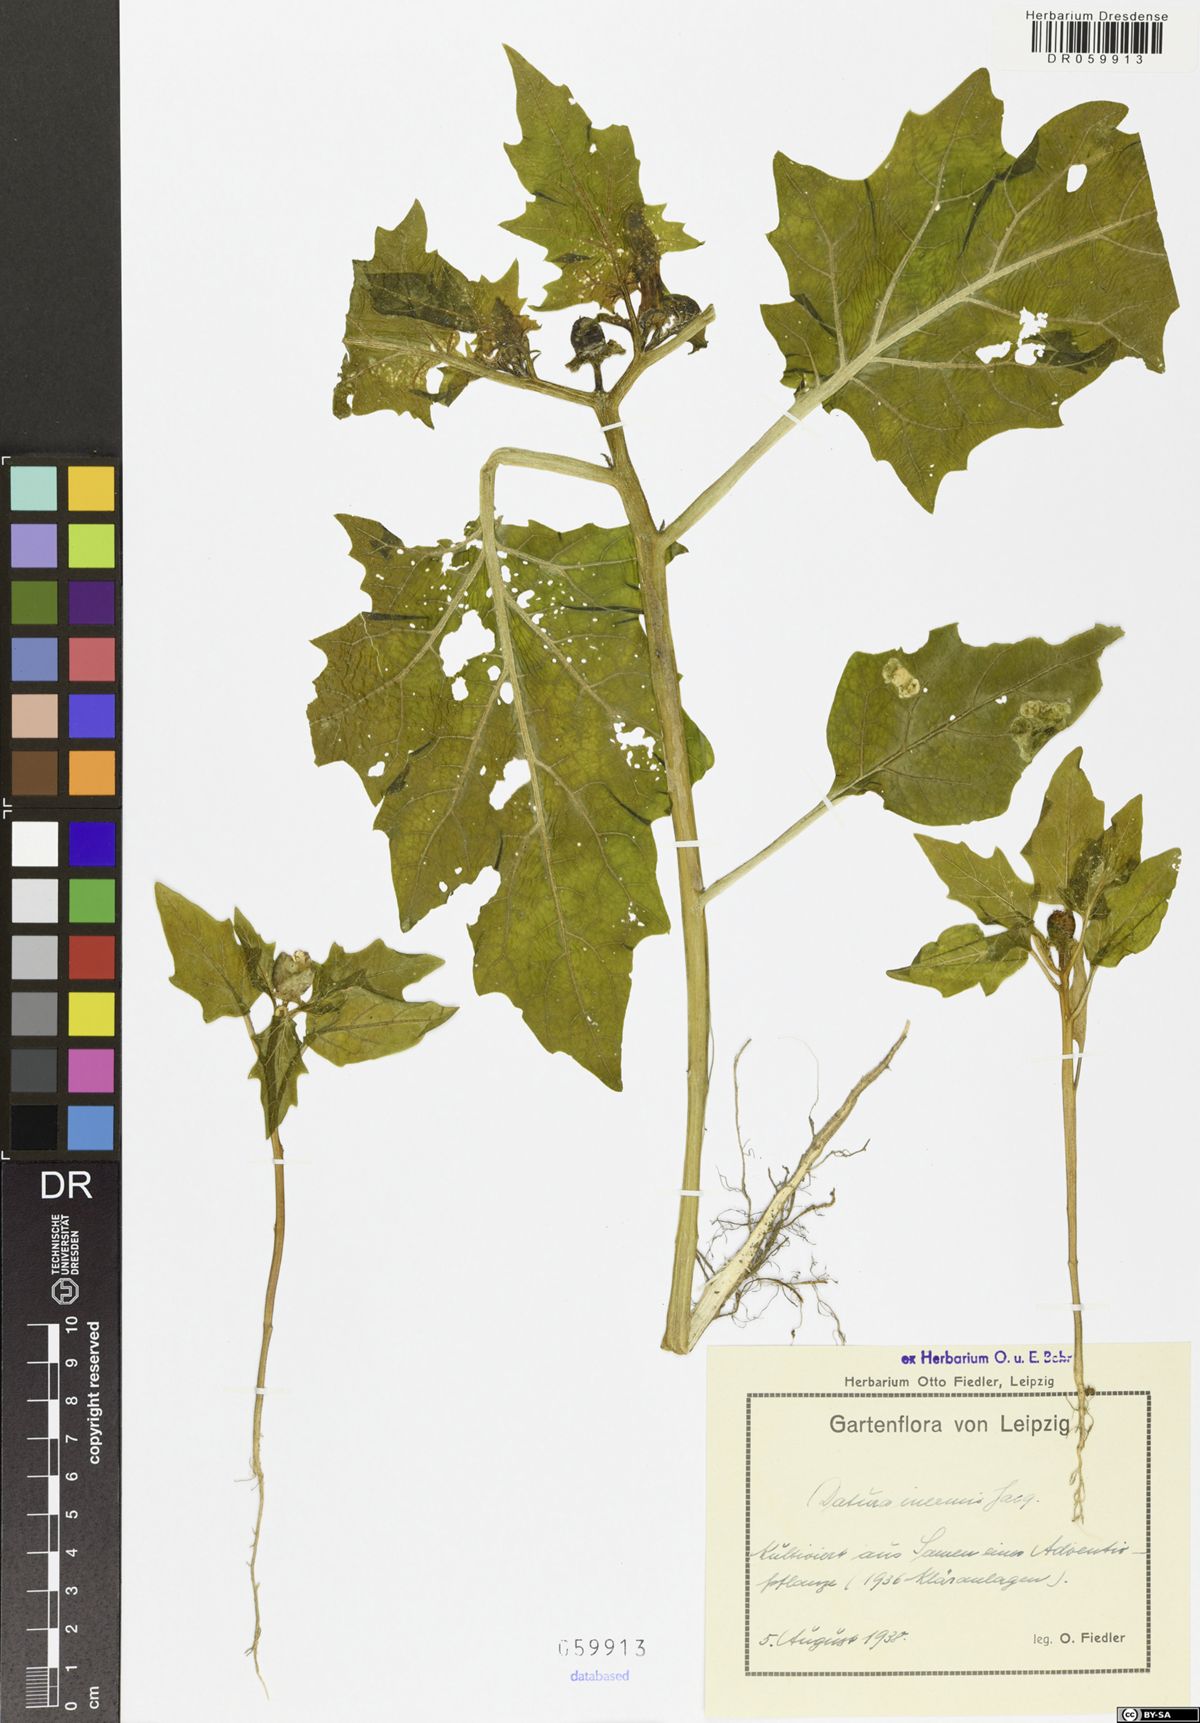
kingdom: Plantae
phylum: Tracheophyta
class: Magnoliopsida
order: Solanales
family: Solanaceae
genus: Datura
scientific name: Datura stramonium
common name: Thorn-apple
